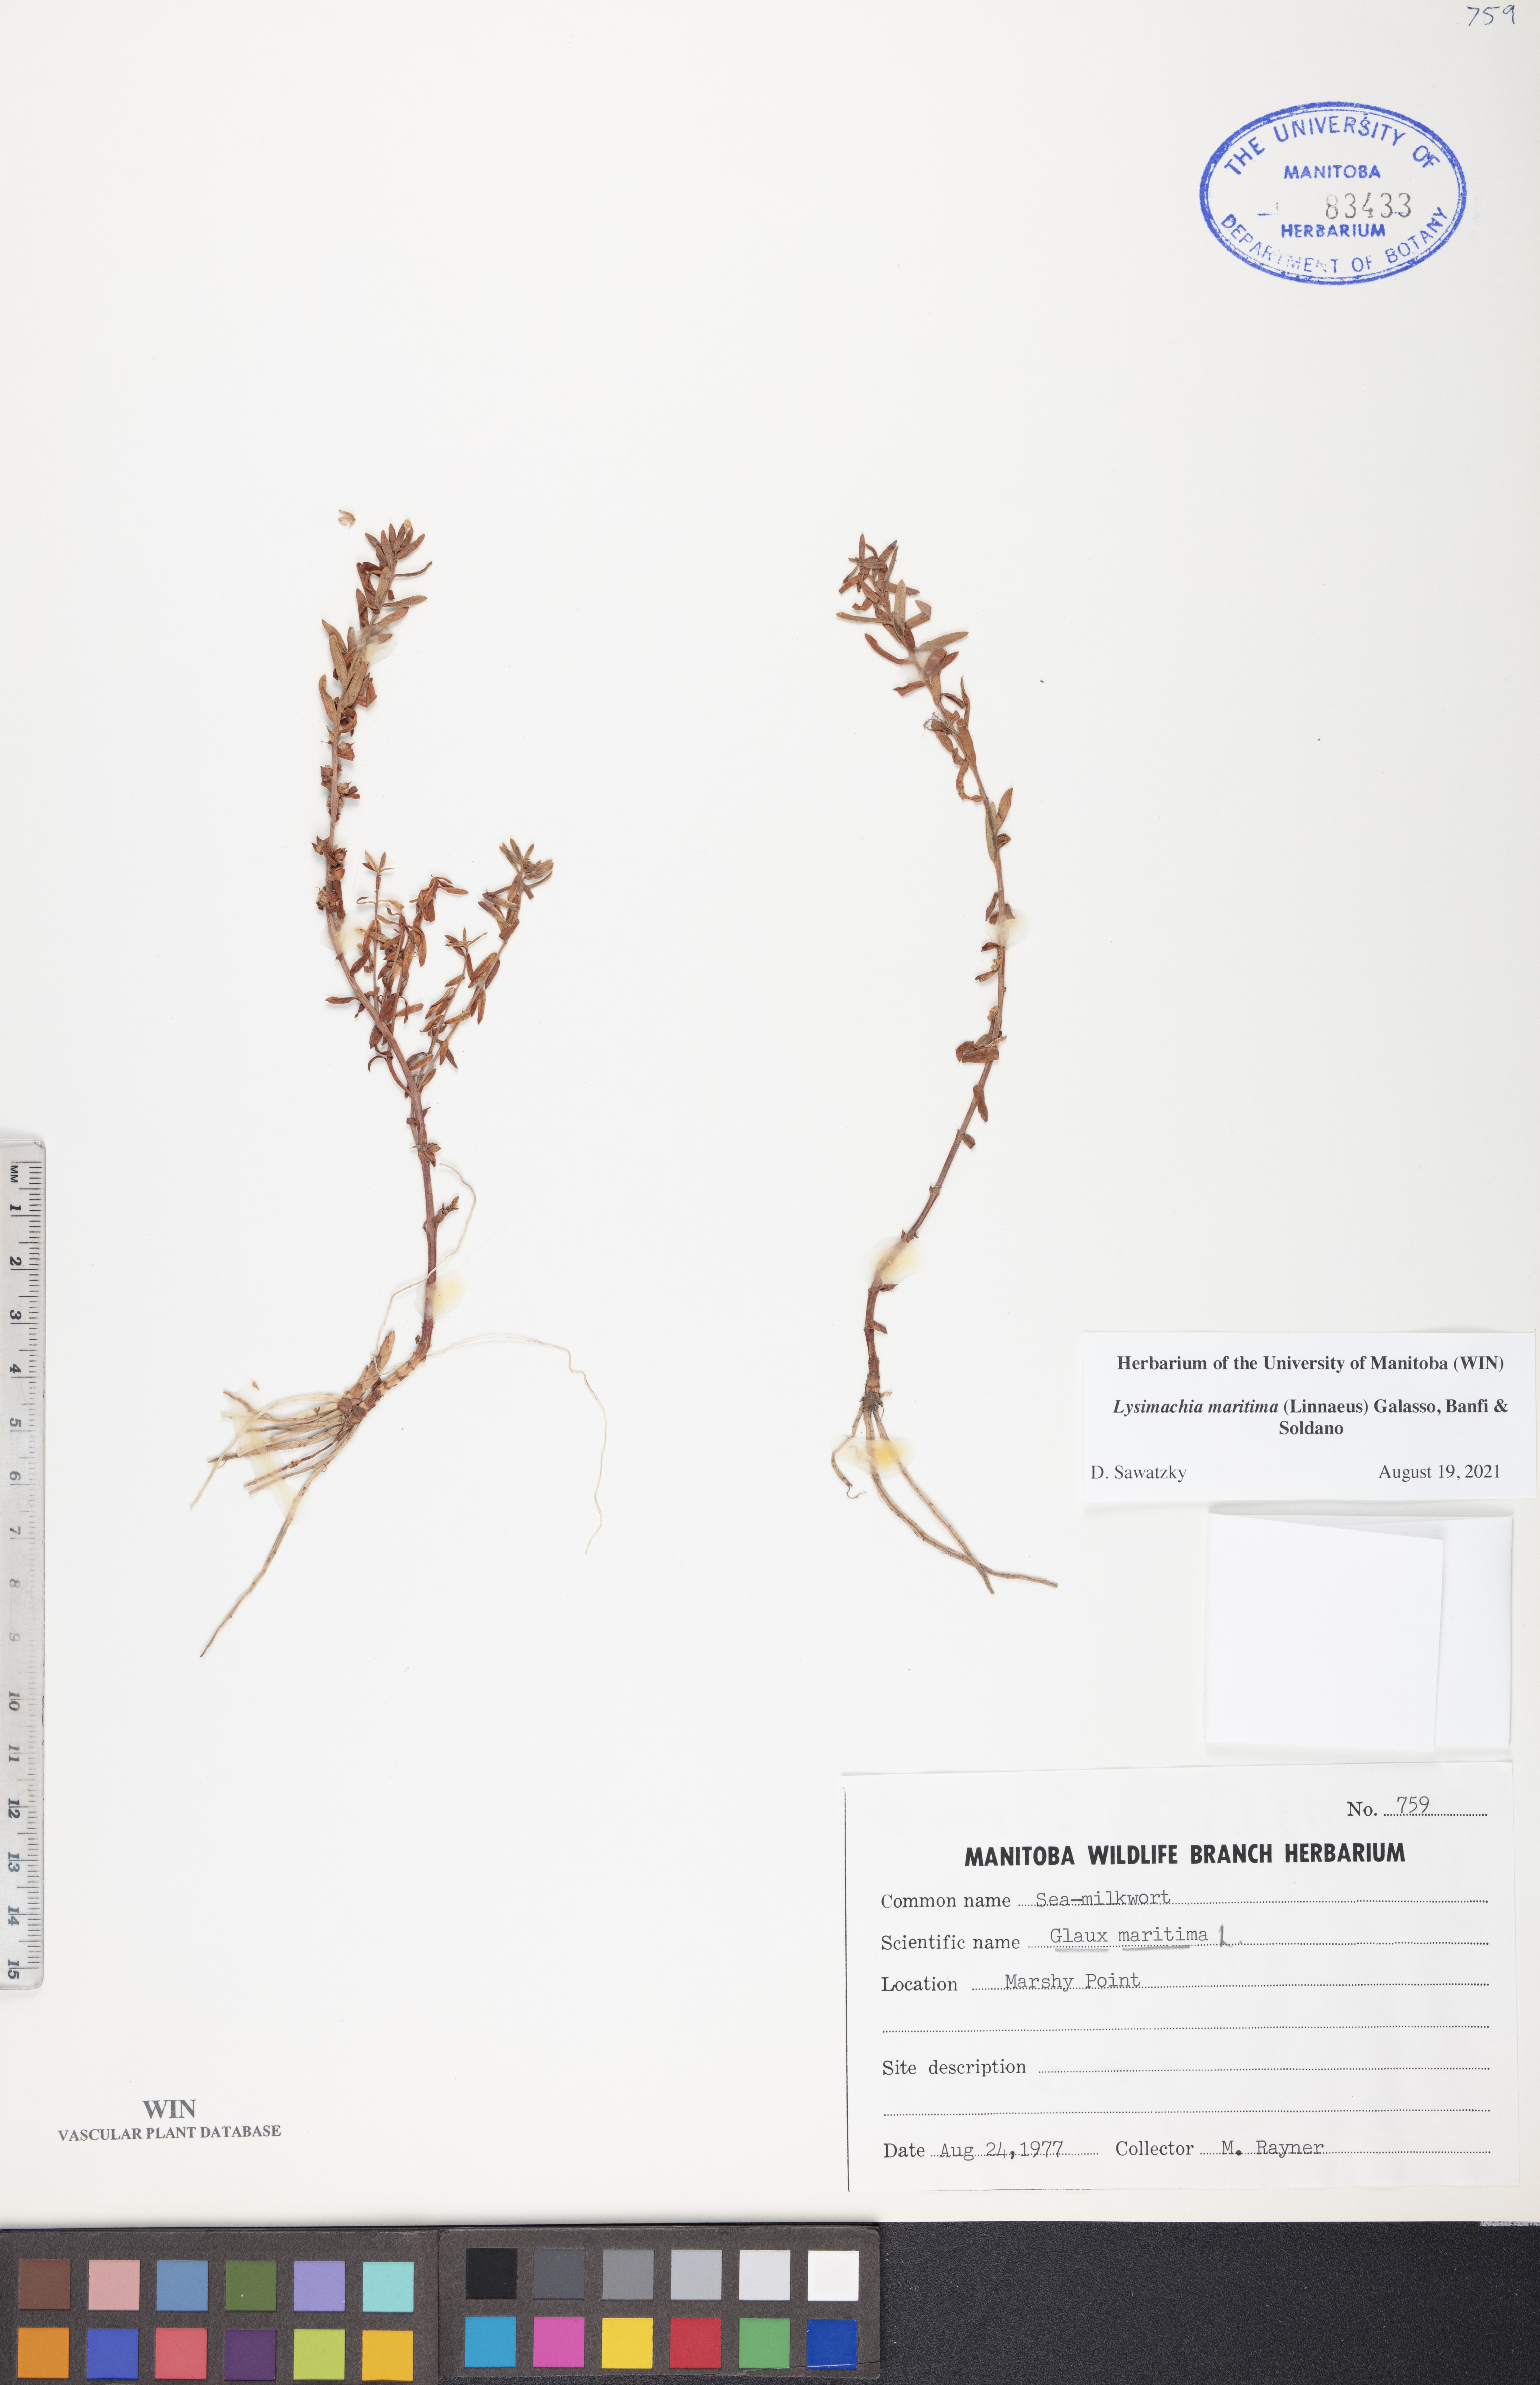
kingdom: Plantae
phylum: Tracheophyta
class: Magnoliopsida
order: Ericales
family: Primulaceae
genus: Lysimachia
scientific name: Lysimachia maritima
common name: Sea milkwort
